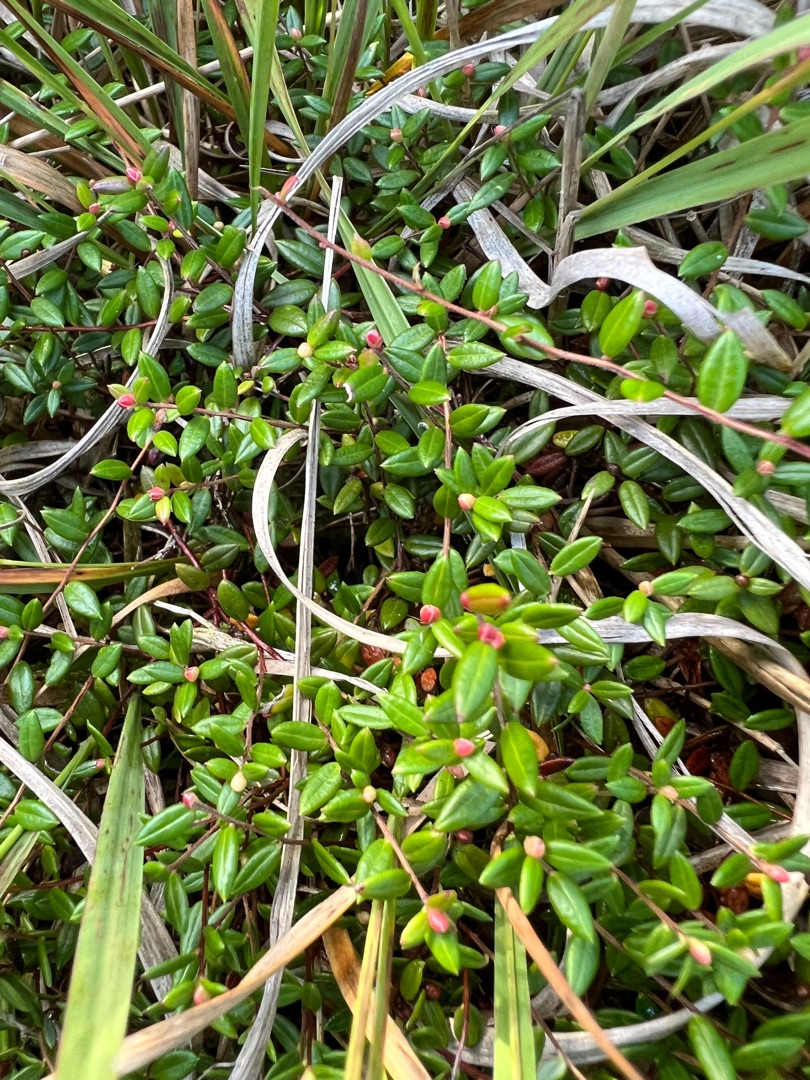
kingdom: Plantae
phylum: Tracheophyta
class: Magnoliopsida
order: Ericales
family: Ericaceae
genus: Vaccinium
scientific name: Vaccinium oxycoccos
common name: Tranebær
